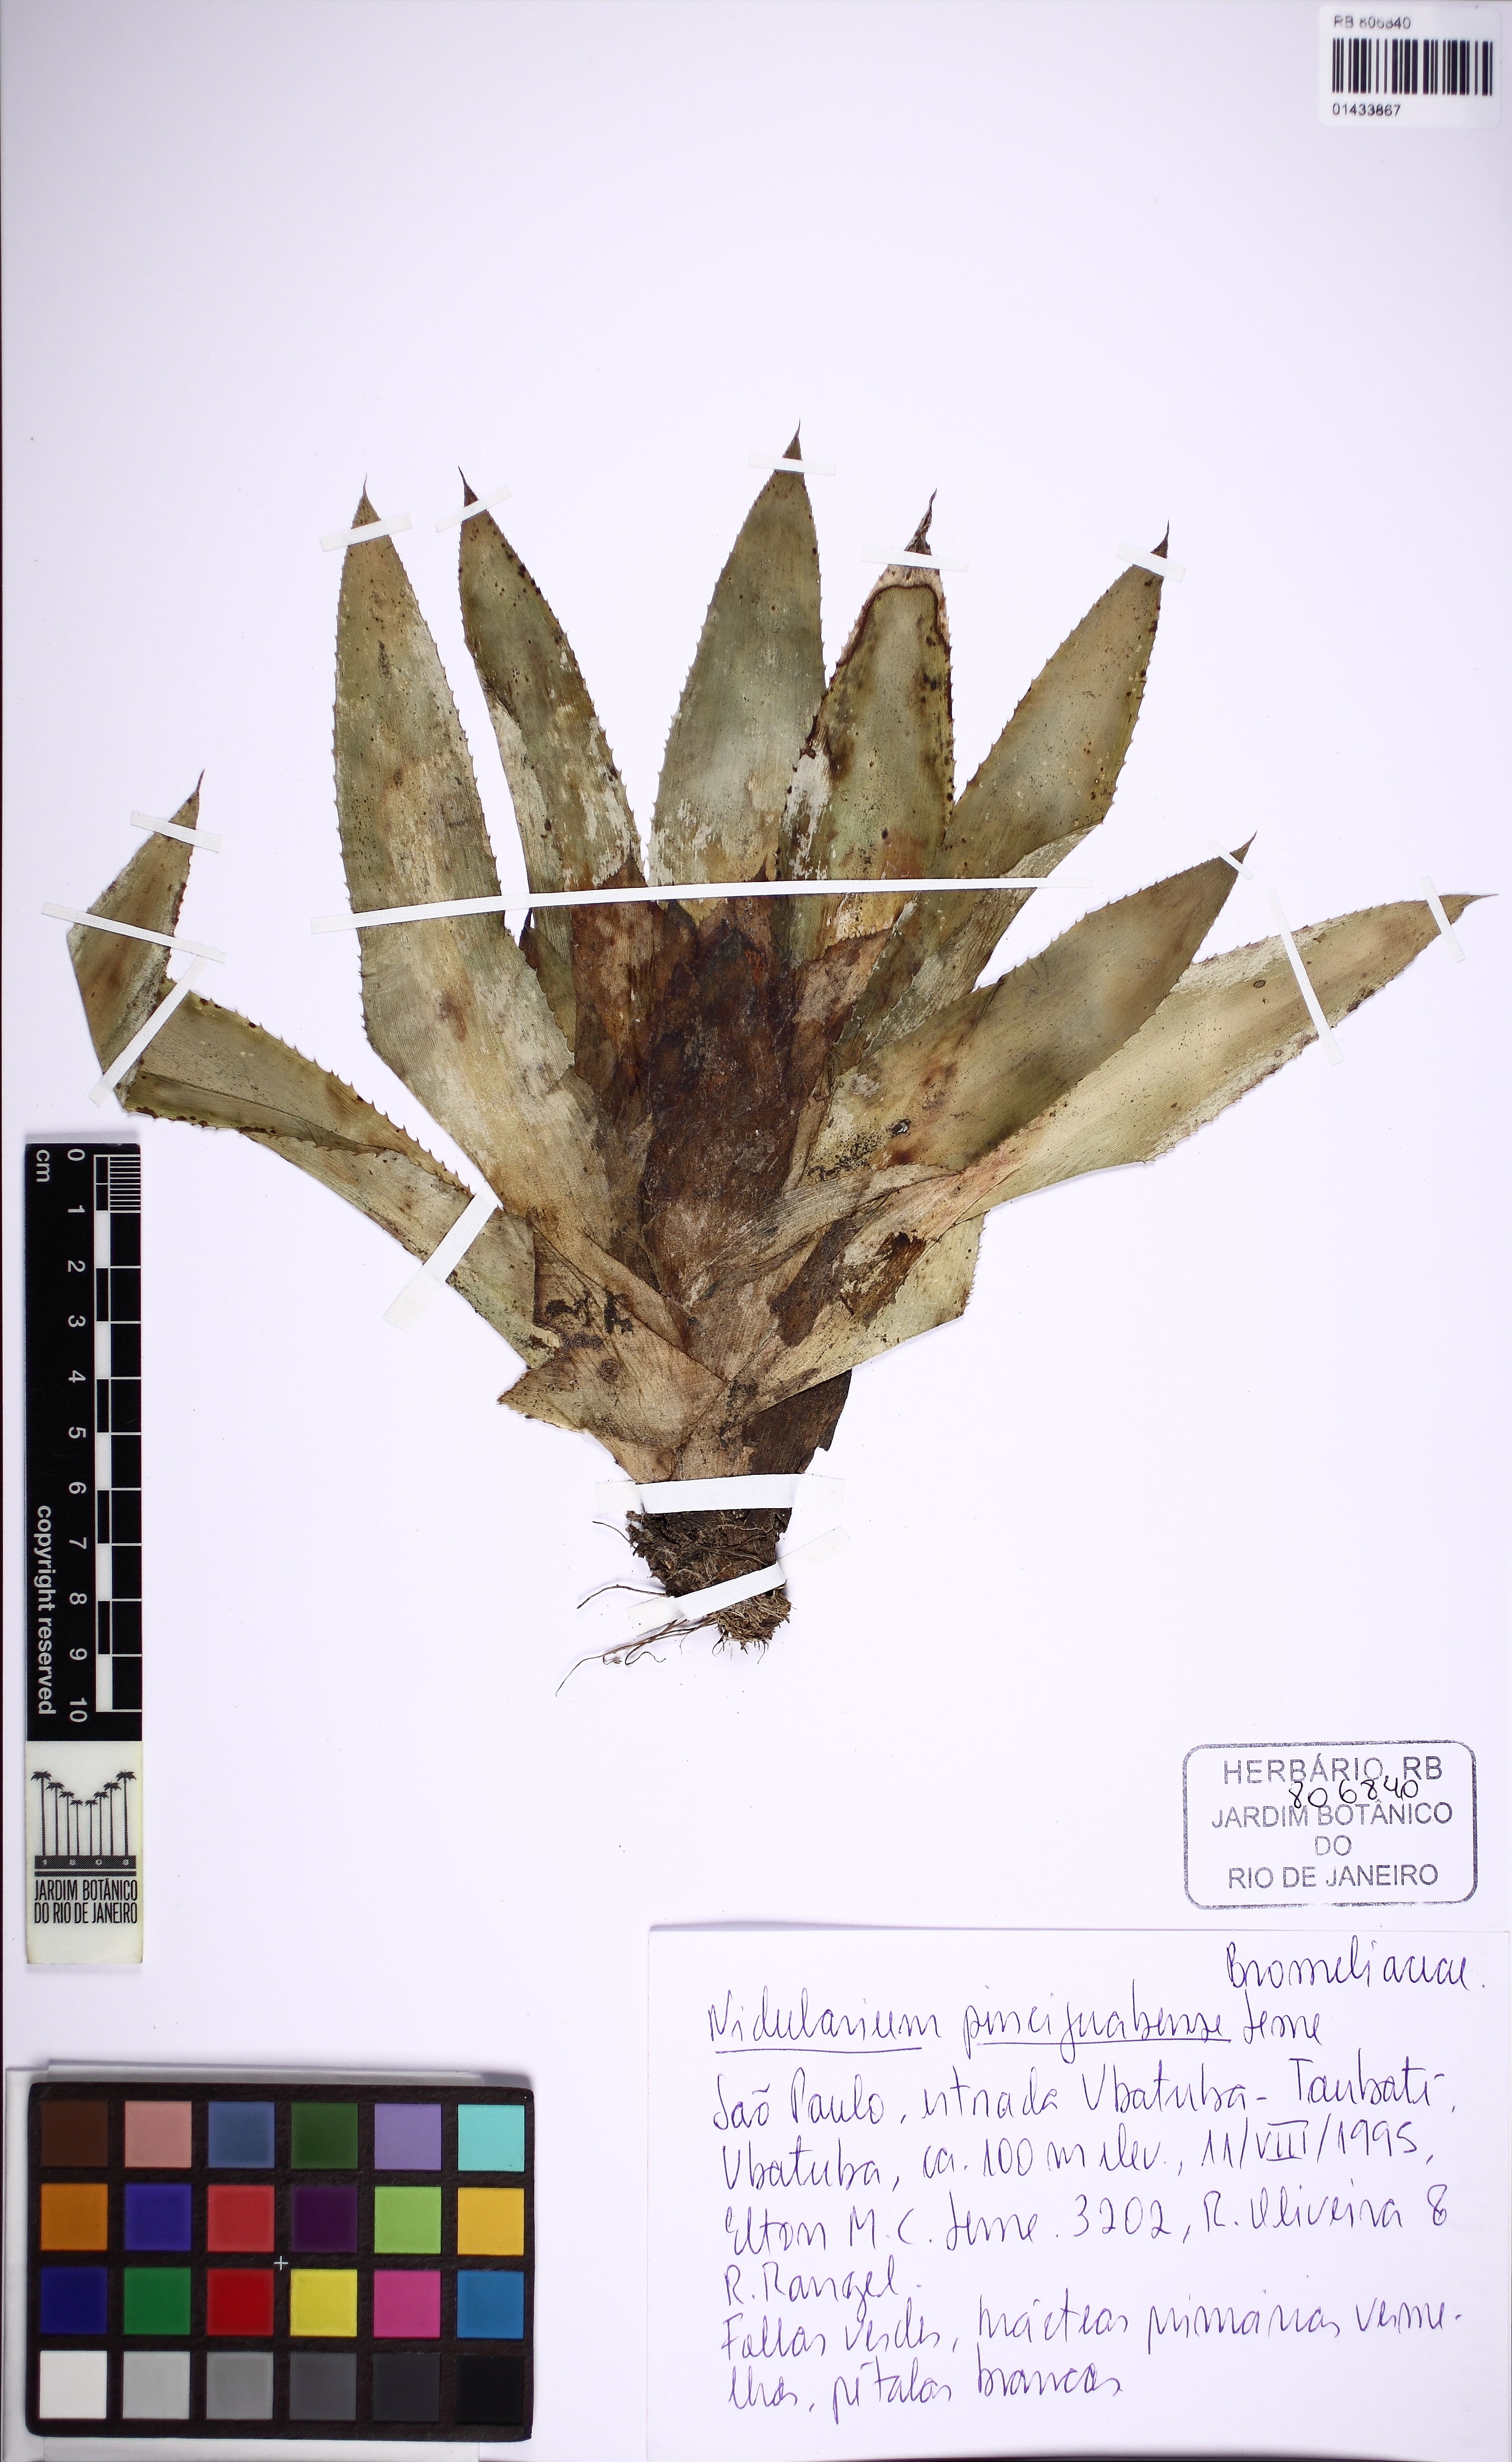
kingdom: Plantae
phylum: Tracheophyta
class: Liliopsida
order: Poales
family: Bromeliaceae
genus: Nidularium
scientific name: Nidularium picinguabense
